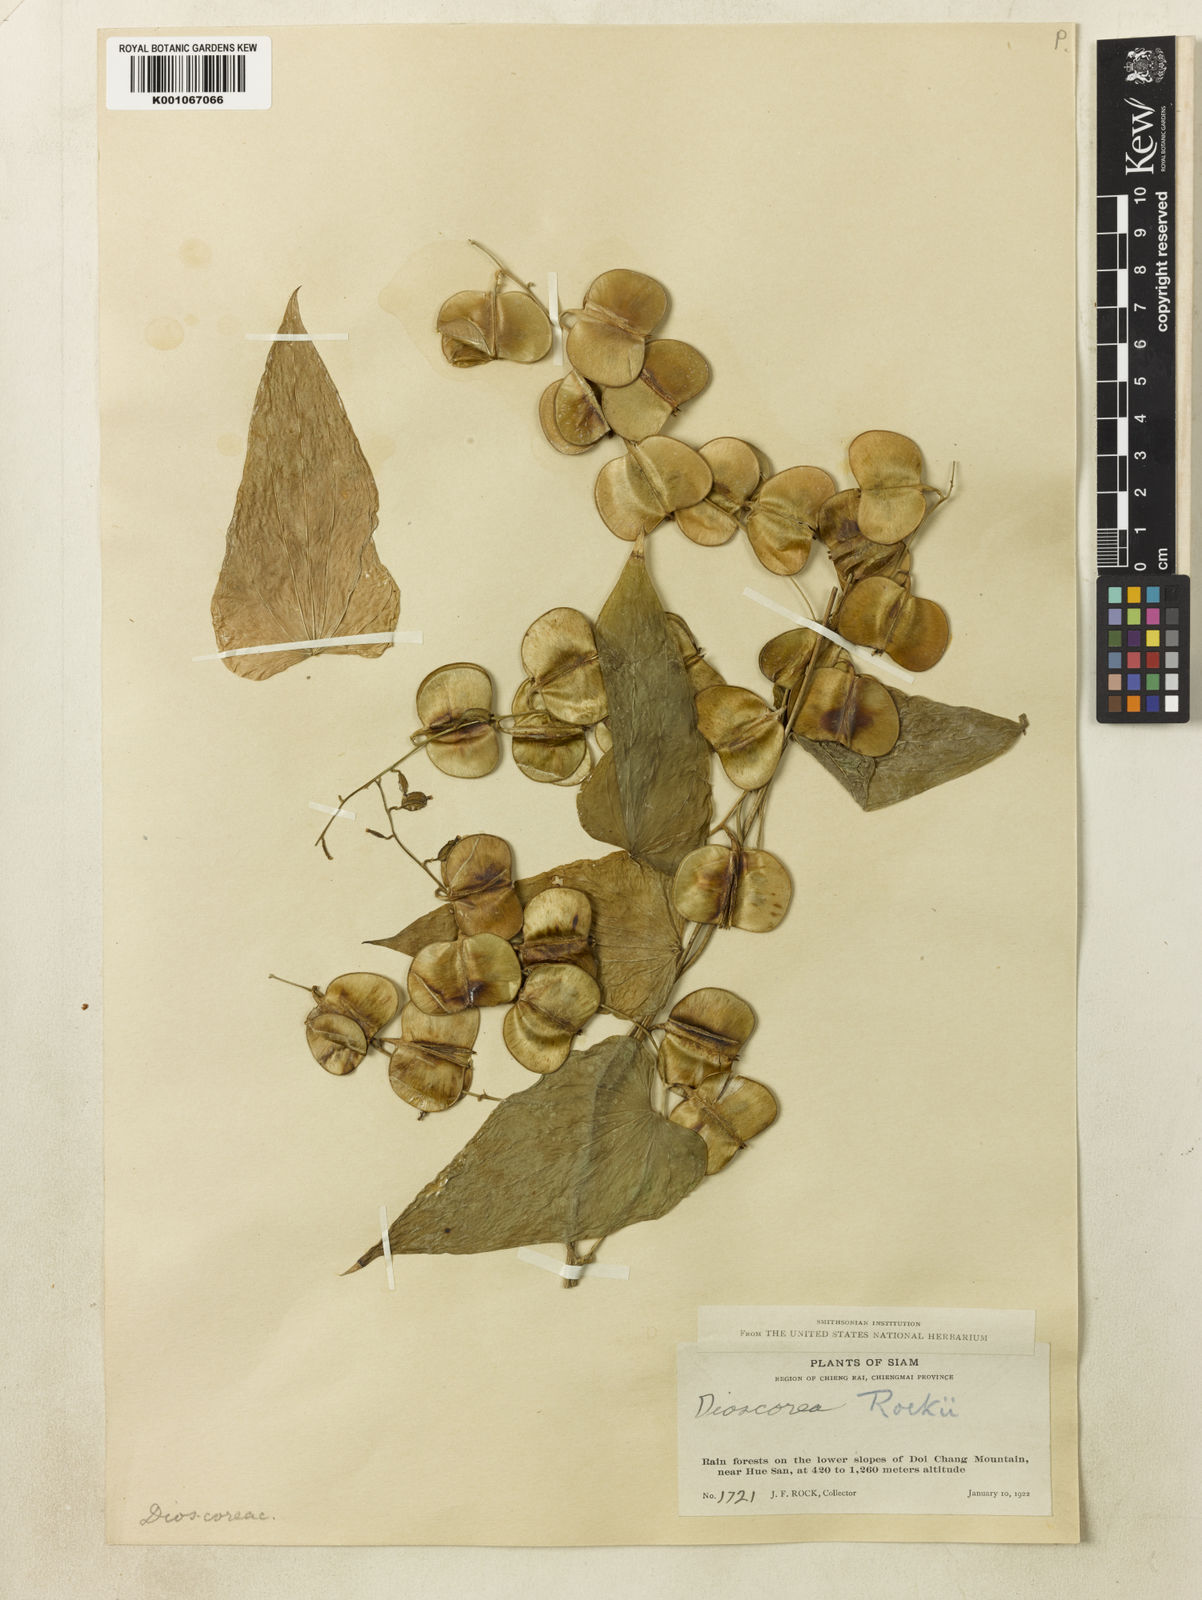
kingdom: Plantae
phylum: Tracheophyta
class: Liliopsida
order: Dioscoreales
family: Dioscoreaceae
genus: Dioscorea
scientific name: Dioscorea rockii
